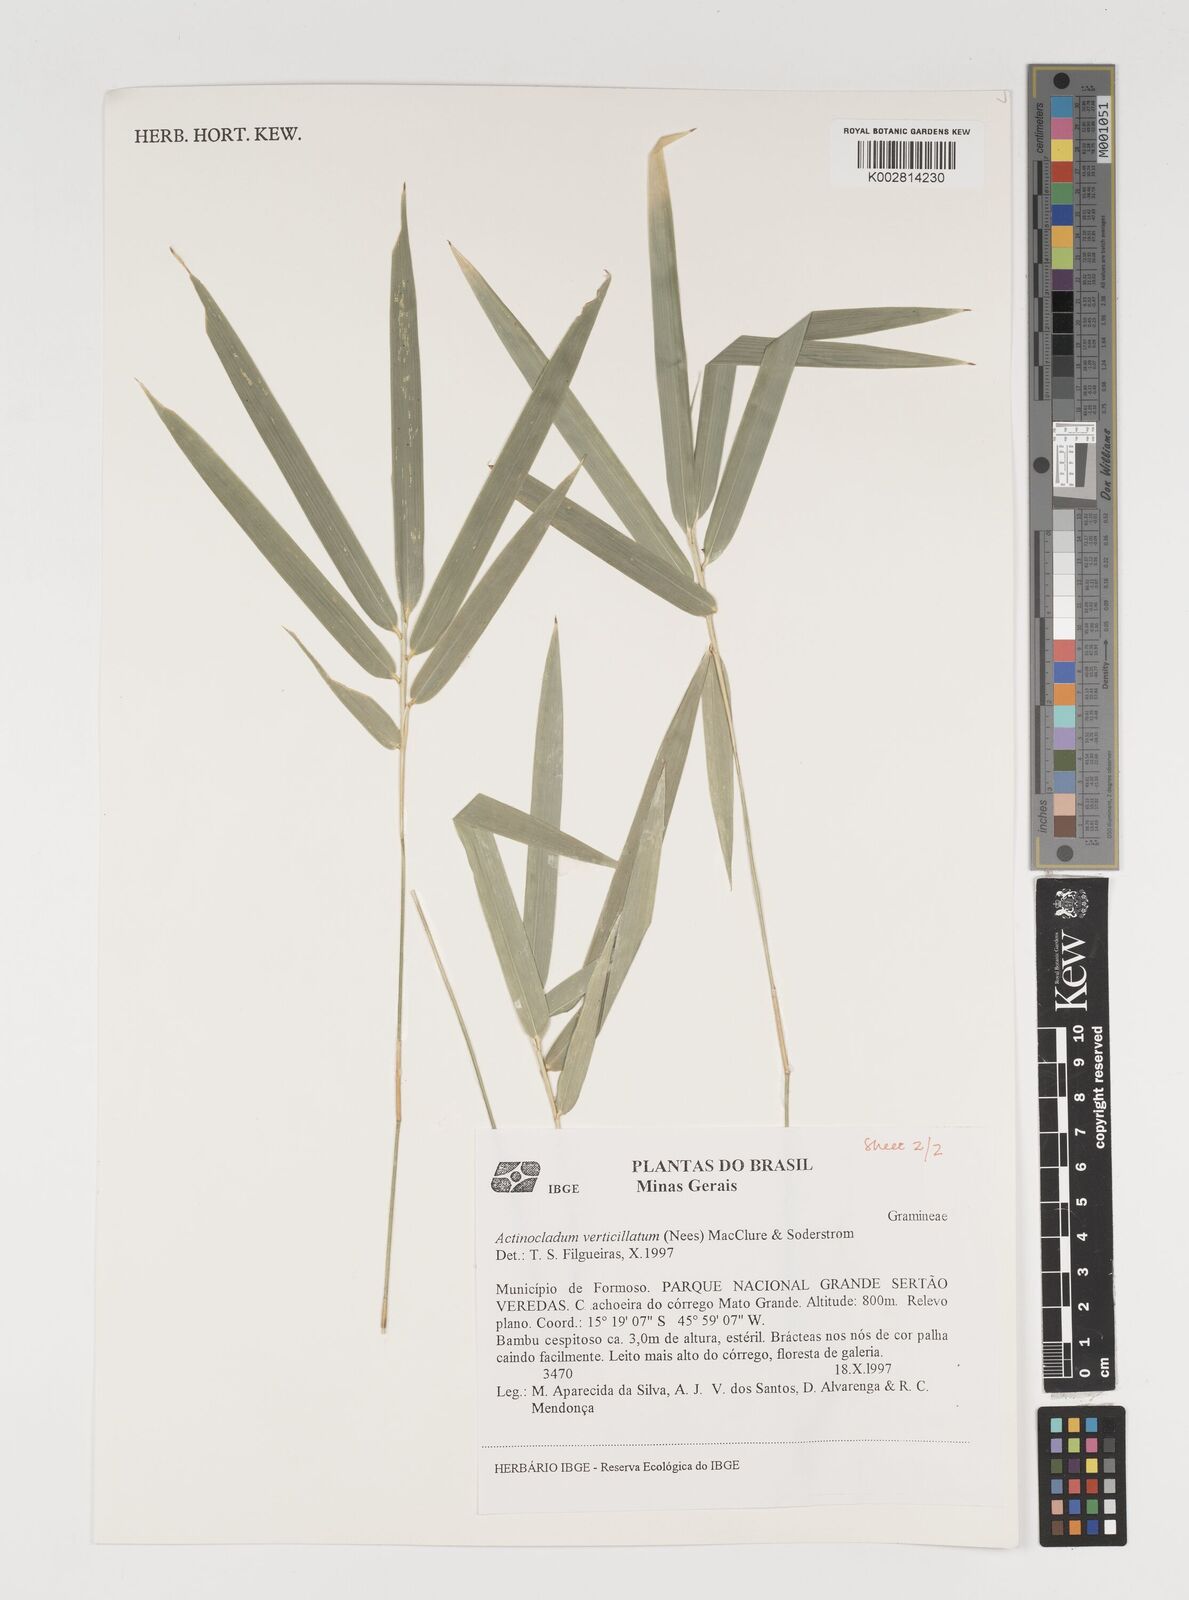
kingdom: Plantae
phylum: Tracheophyta
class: Liliopsida
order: Poales
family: Poaceae
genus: Actinocladum
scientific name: Actinocladum verticillatum
